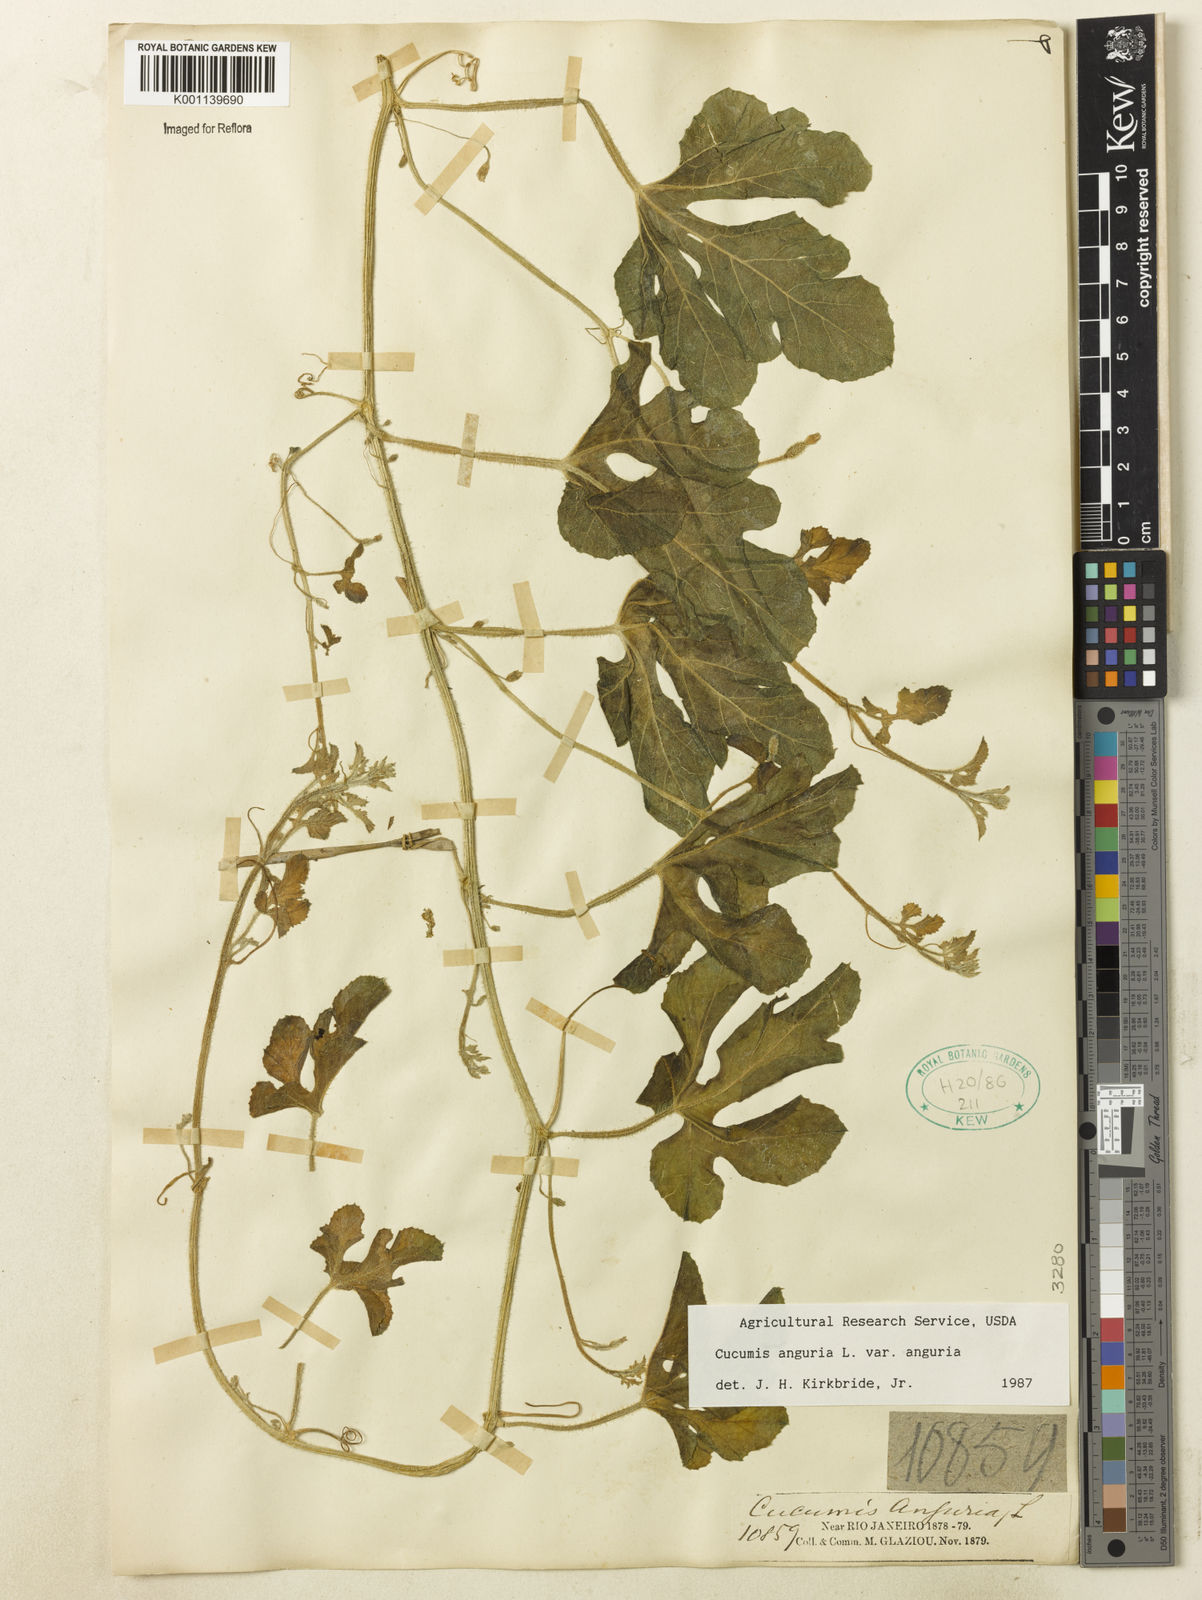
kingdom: Plantae
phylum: Tracheophyta
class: Magnoliopsida
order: Cucurbitales
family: Cucurbitaceae
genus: Cucumis
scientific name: Cucumis anguria
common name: West indian gherkin
